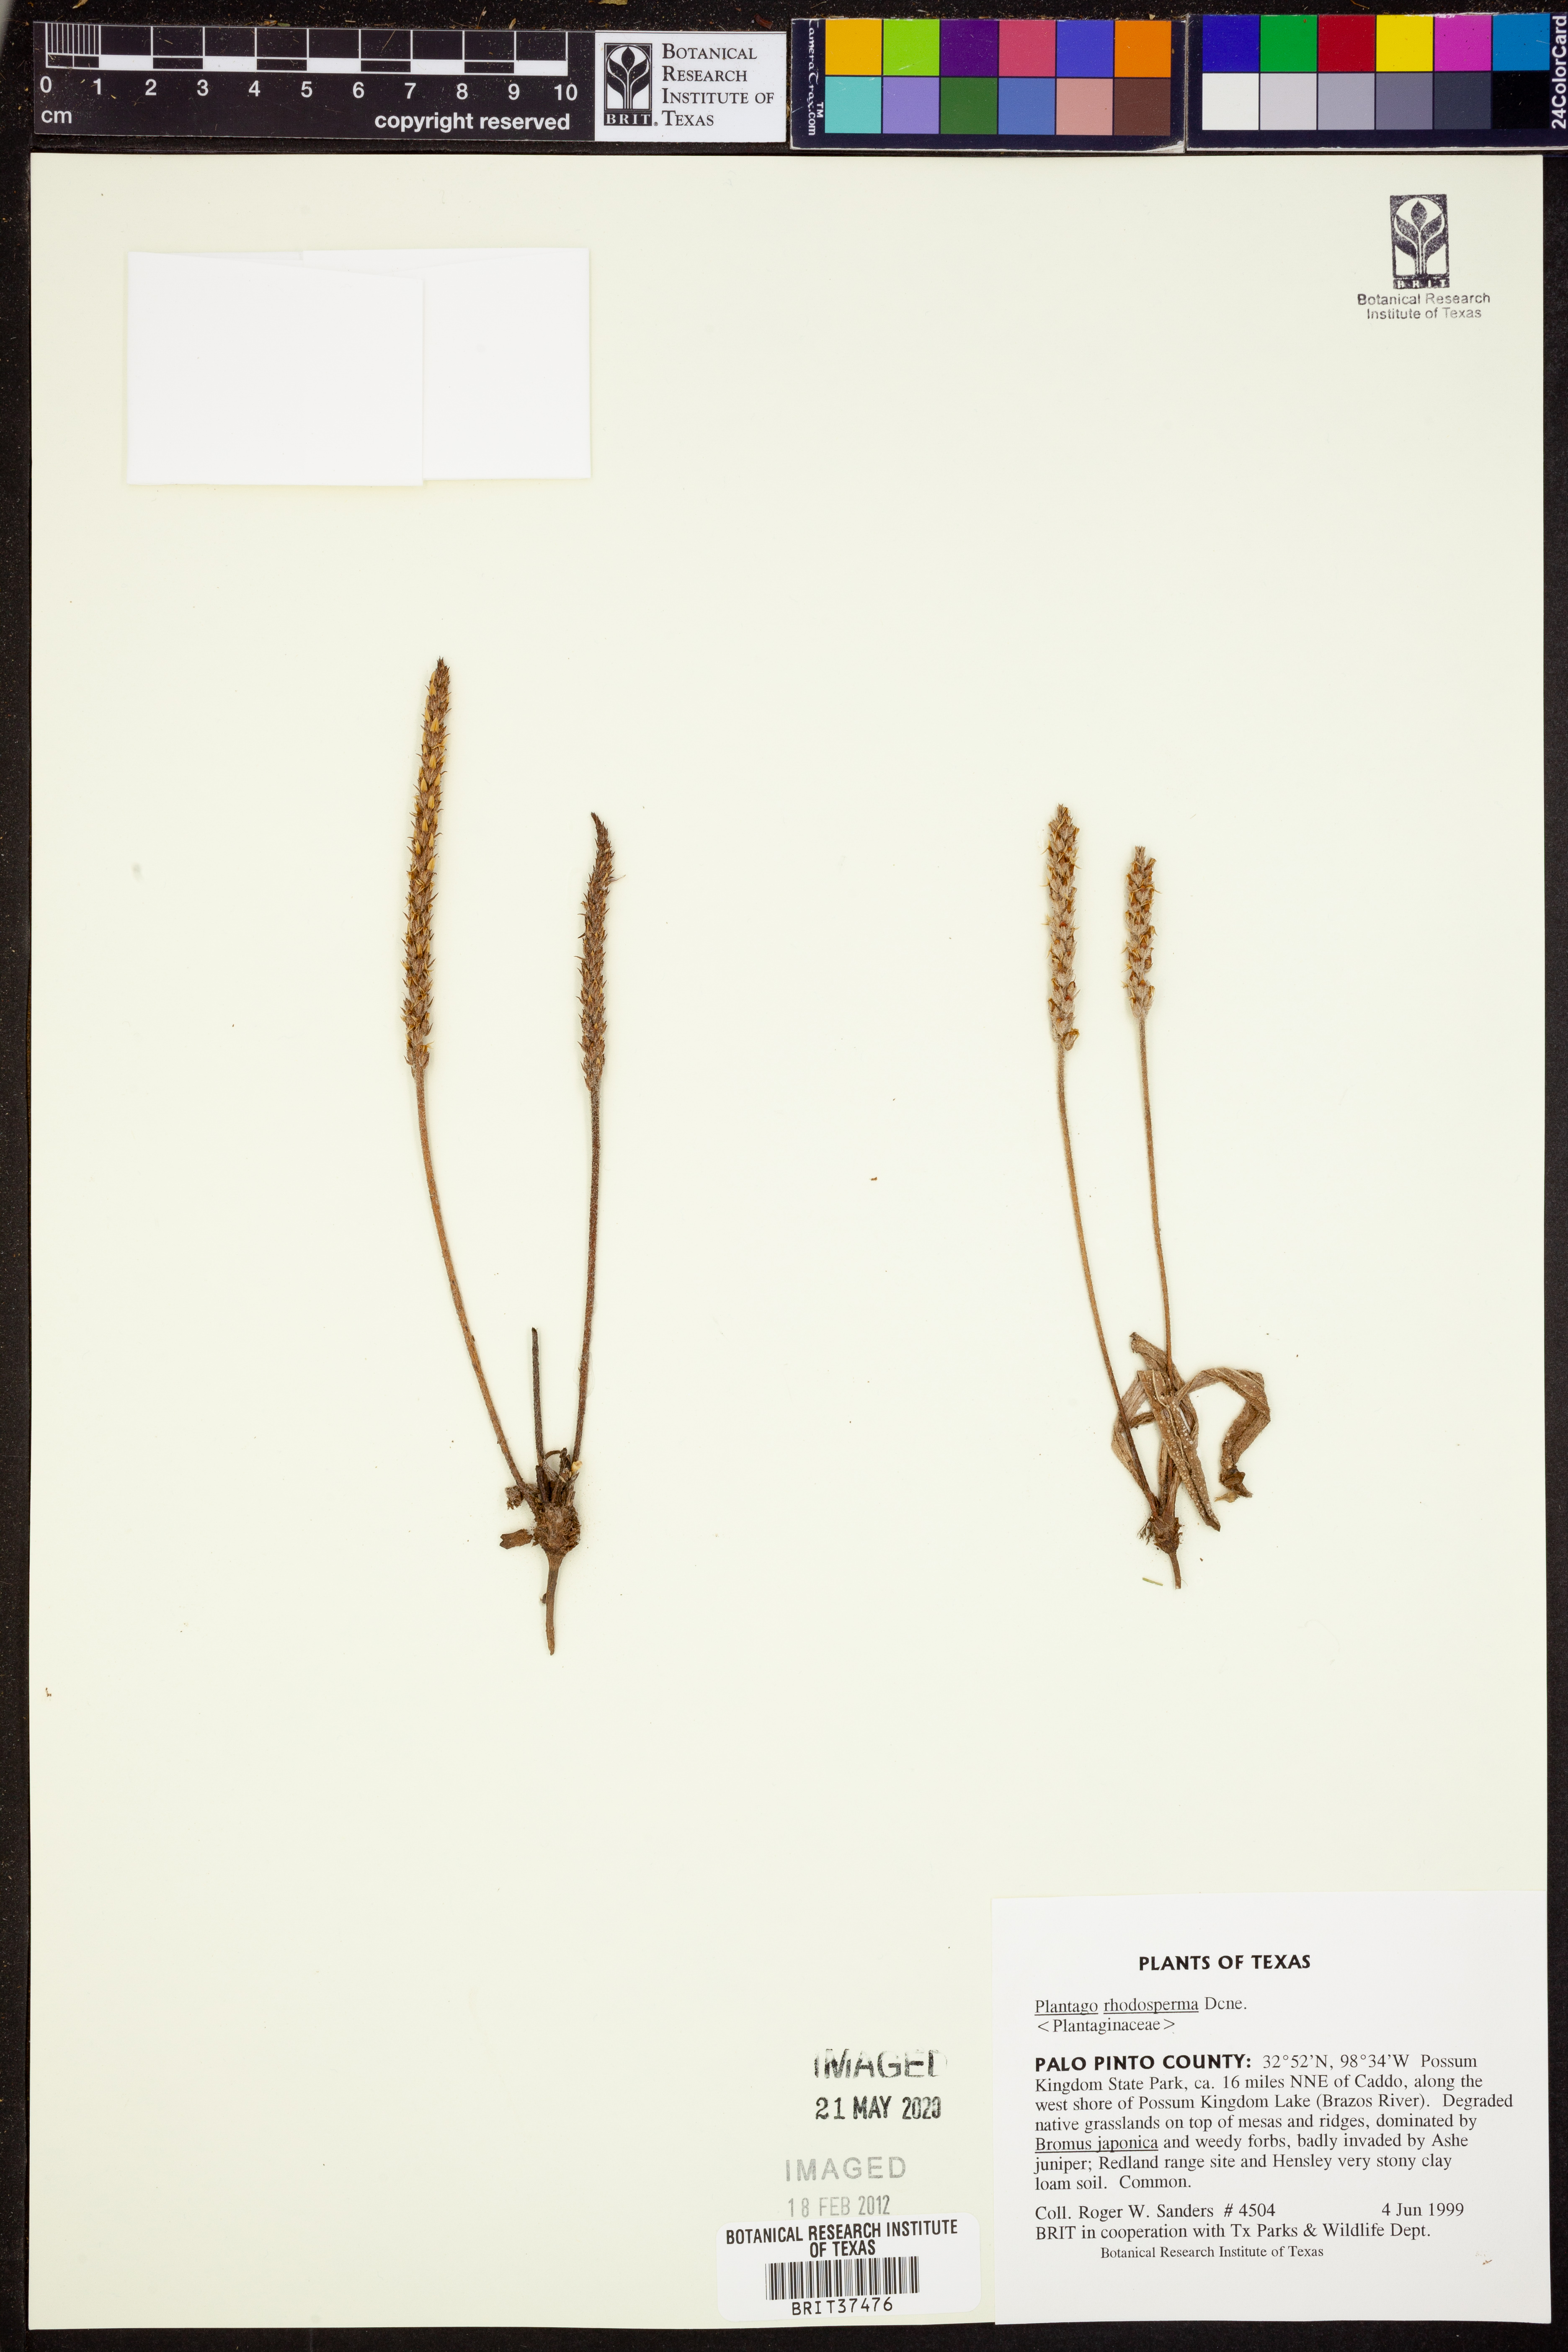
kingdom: Plantae
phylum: Tracheophyta
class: Magnoliopsida
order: Lamiales
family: Plantaginaceae
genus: Plantago
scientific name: Plantago rhodosperma
